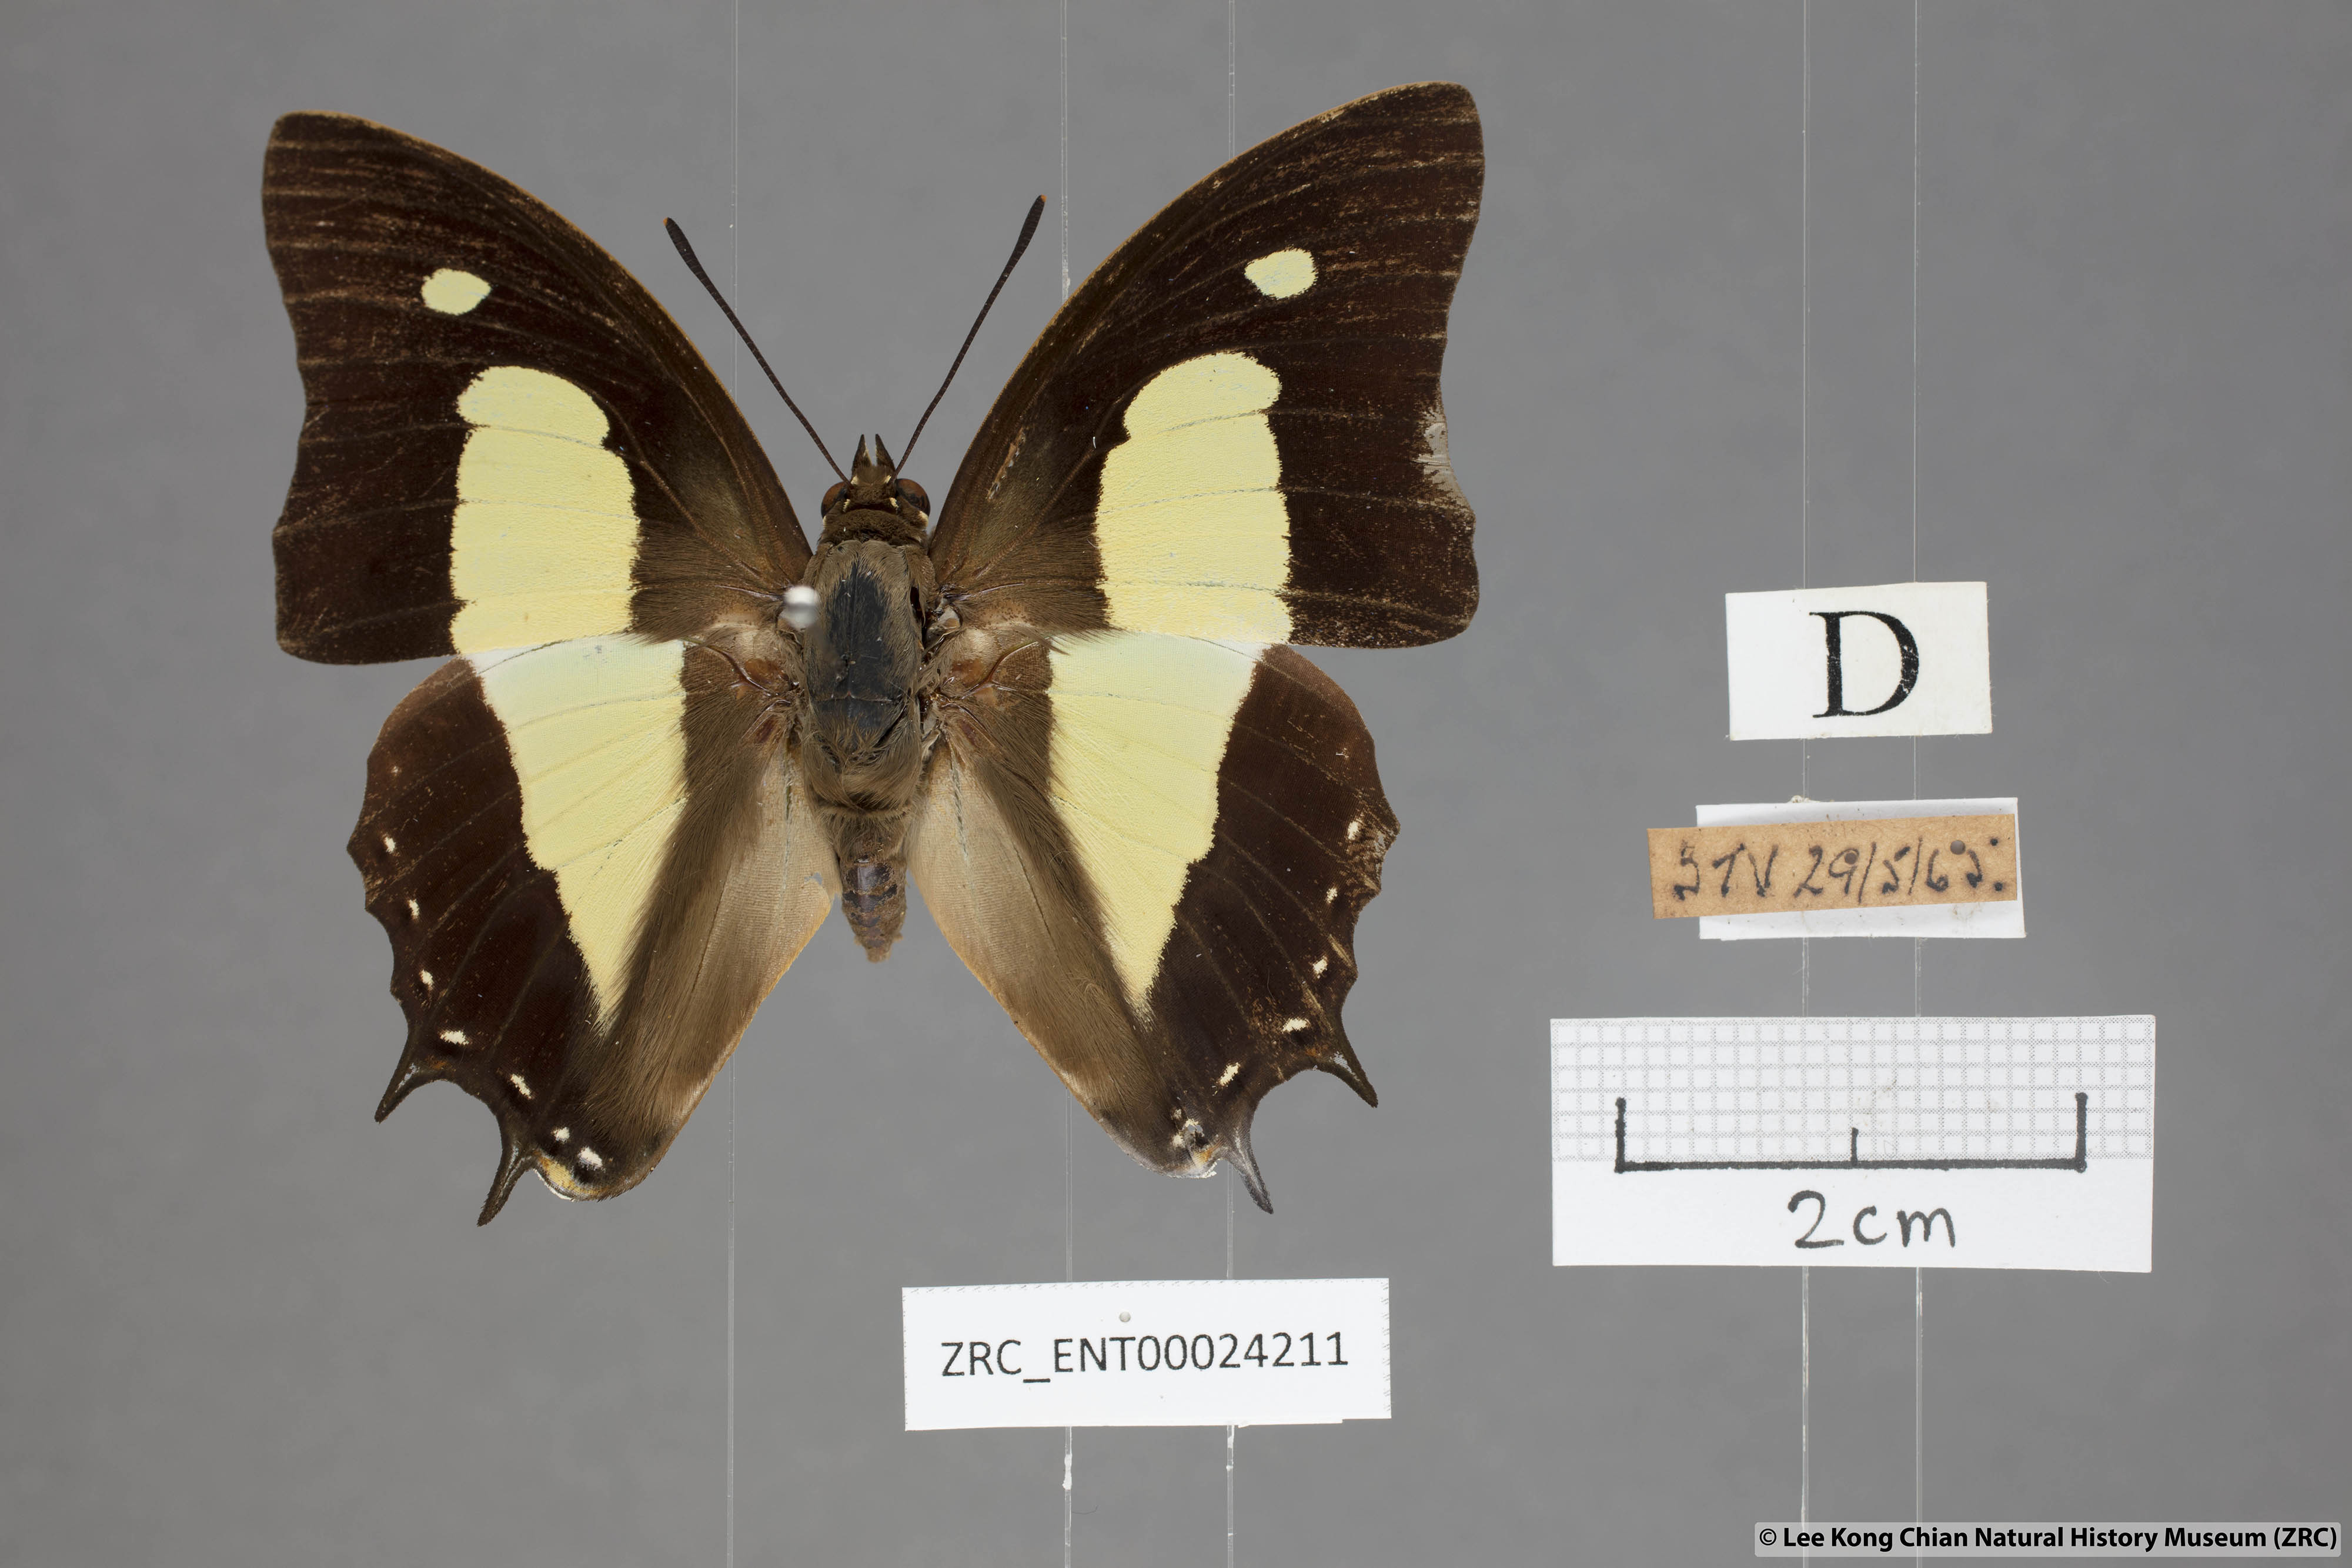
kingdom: Animalia
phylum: Arthropoda
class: Insecta
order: Lepidoptera
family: Nymphalidae
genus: Polyura
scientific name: Polyura athamas
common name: Common nawab
